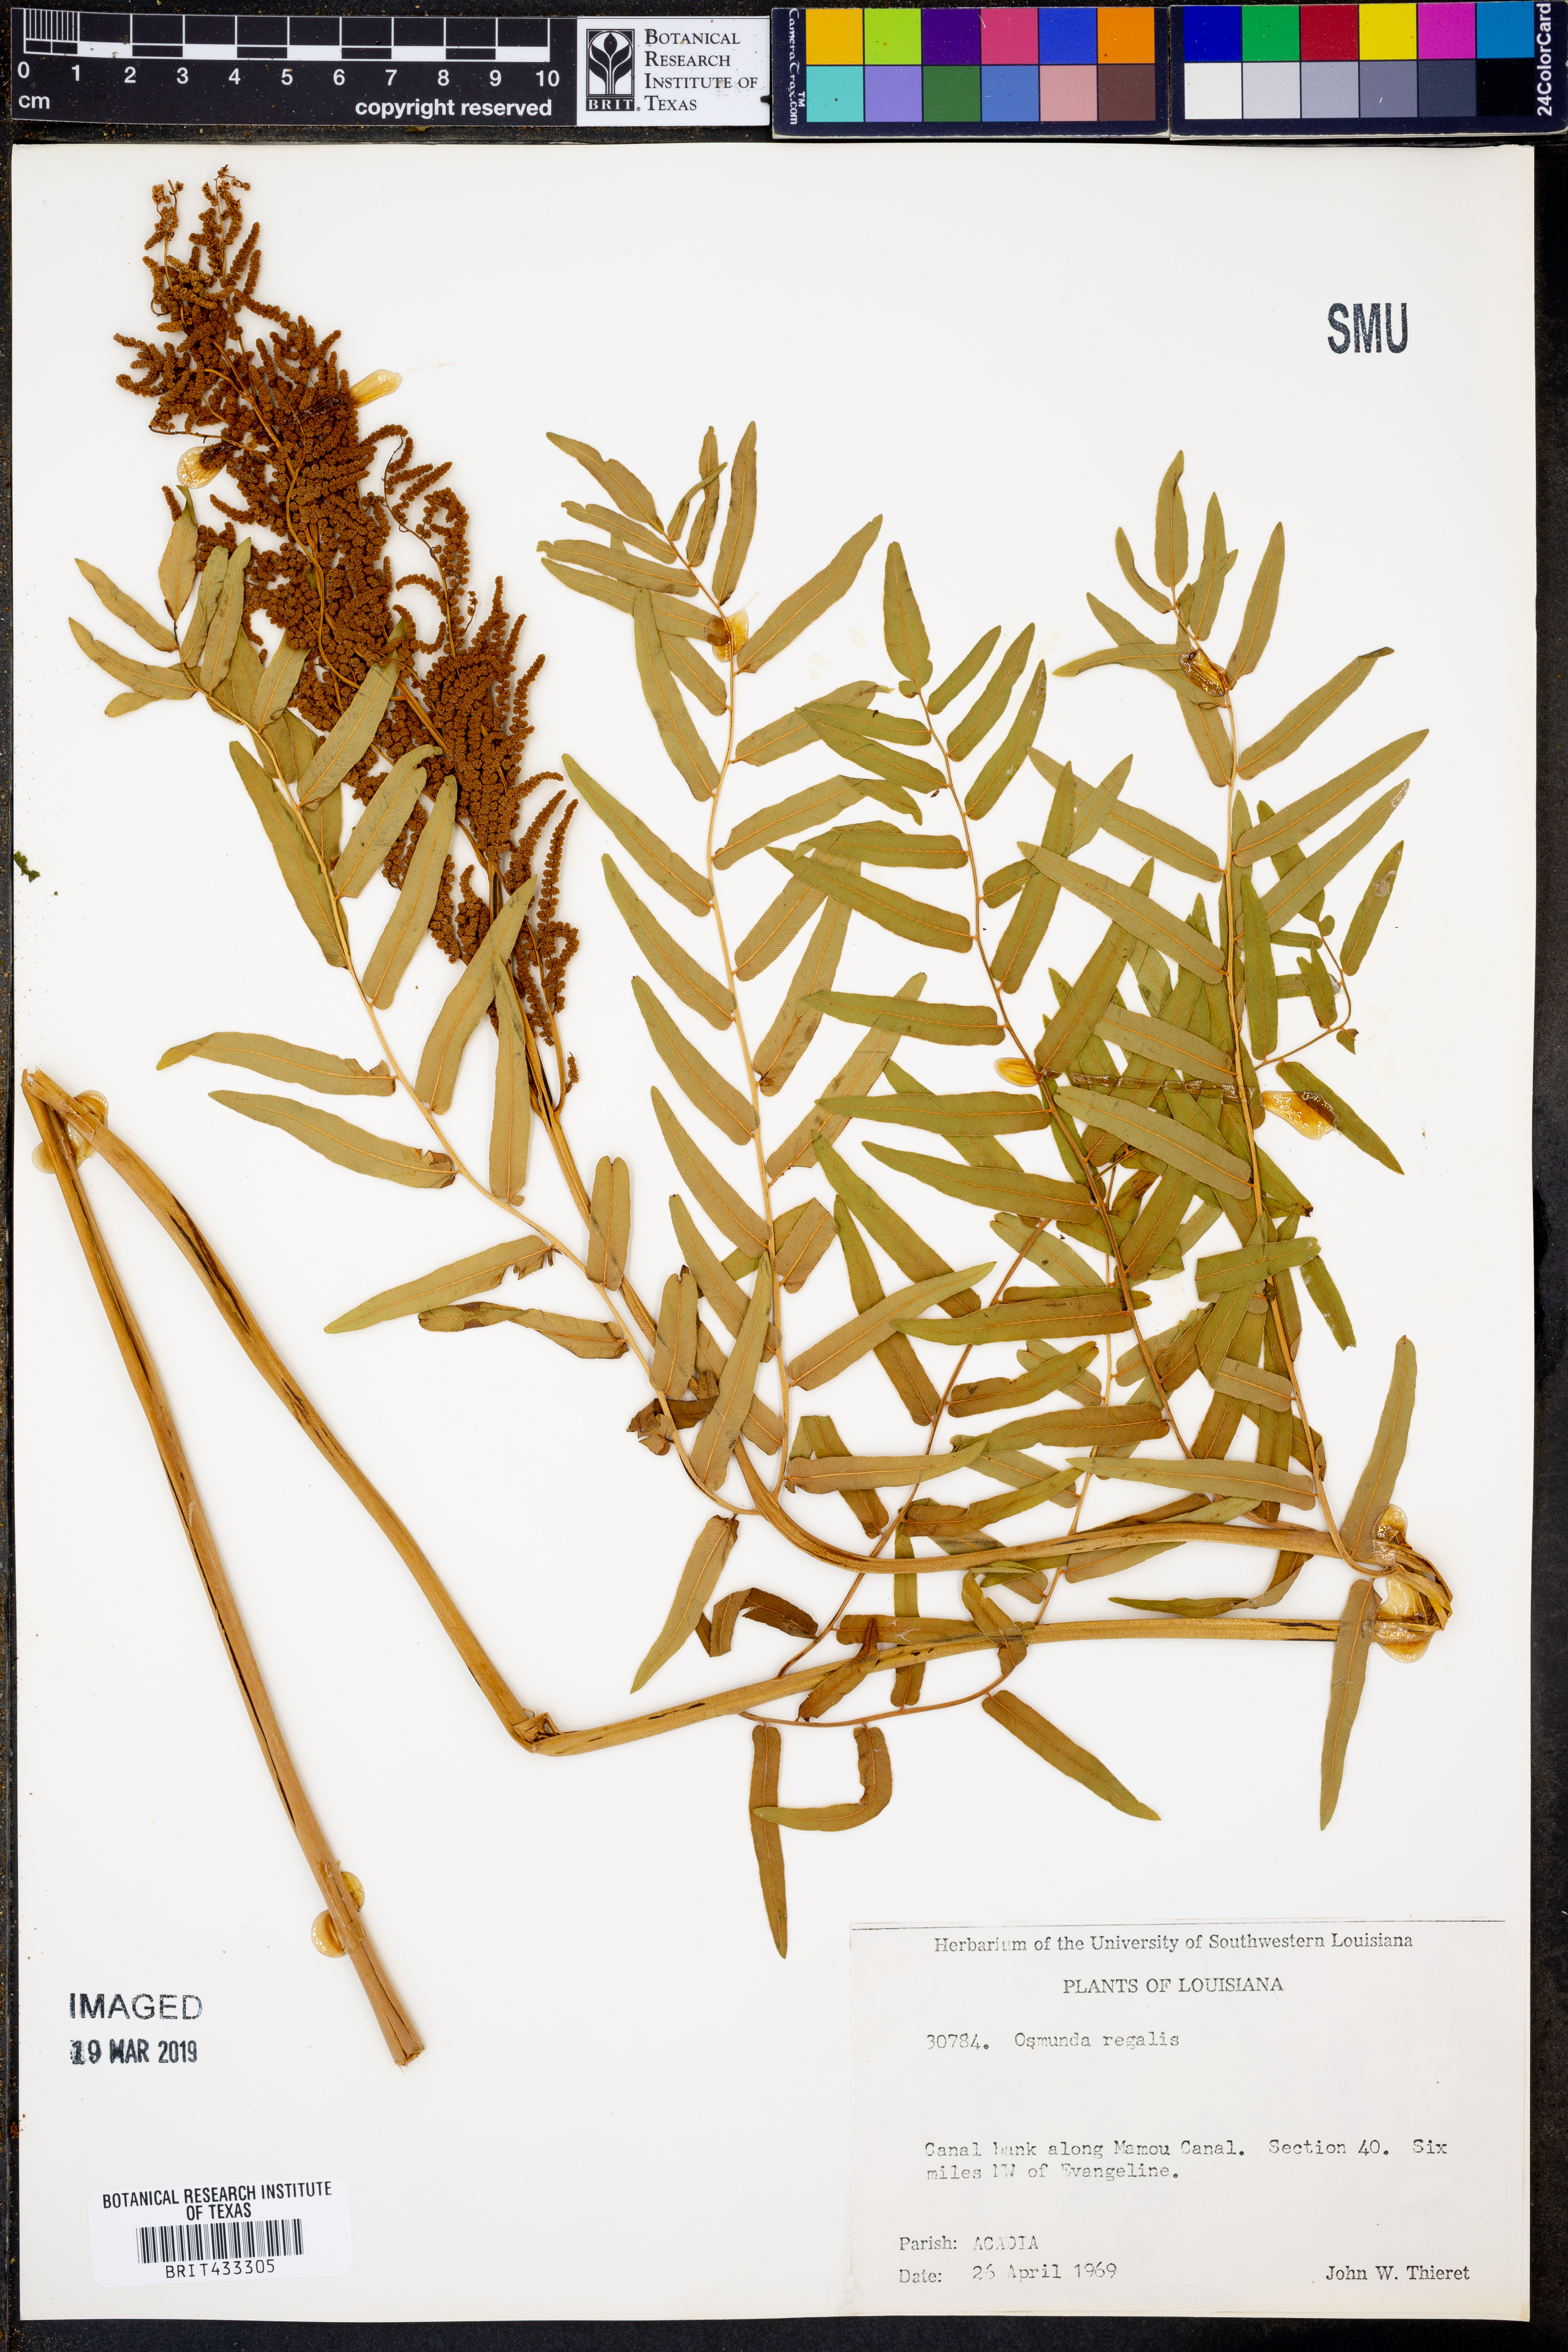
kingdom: Plantae
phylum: Tracheophyta
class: Polypodiopsida
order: Osmundales
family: Osmundaceae
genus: Osmunda
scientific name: Osmunda regalis
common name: Royal fern
